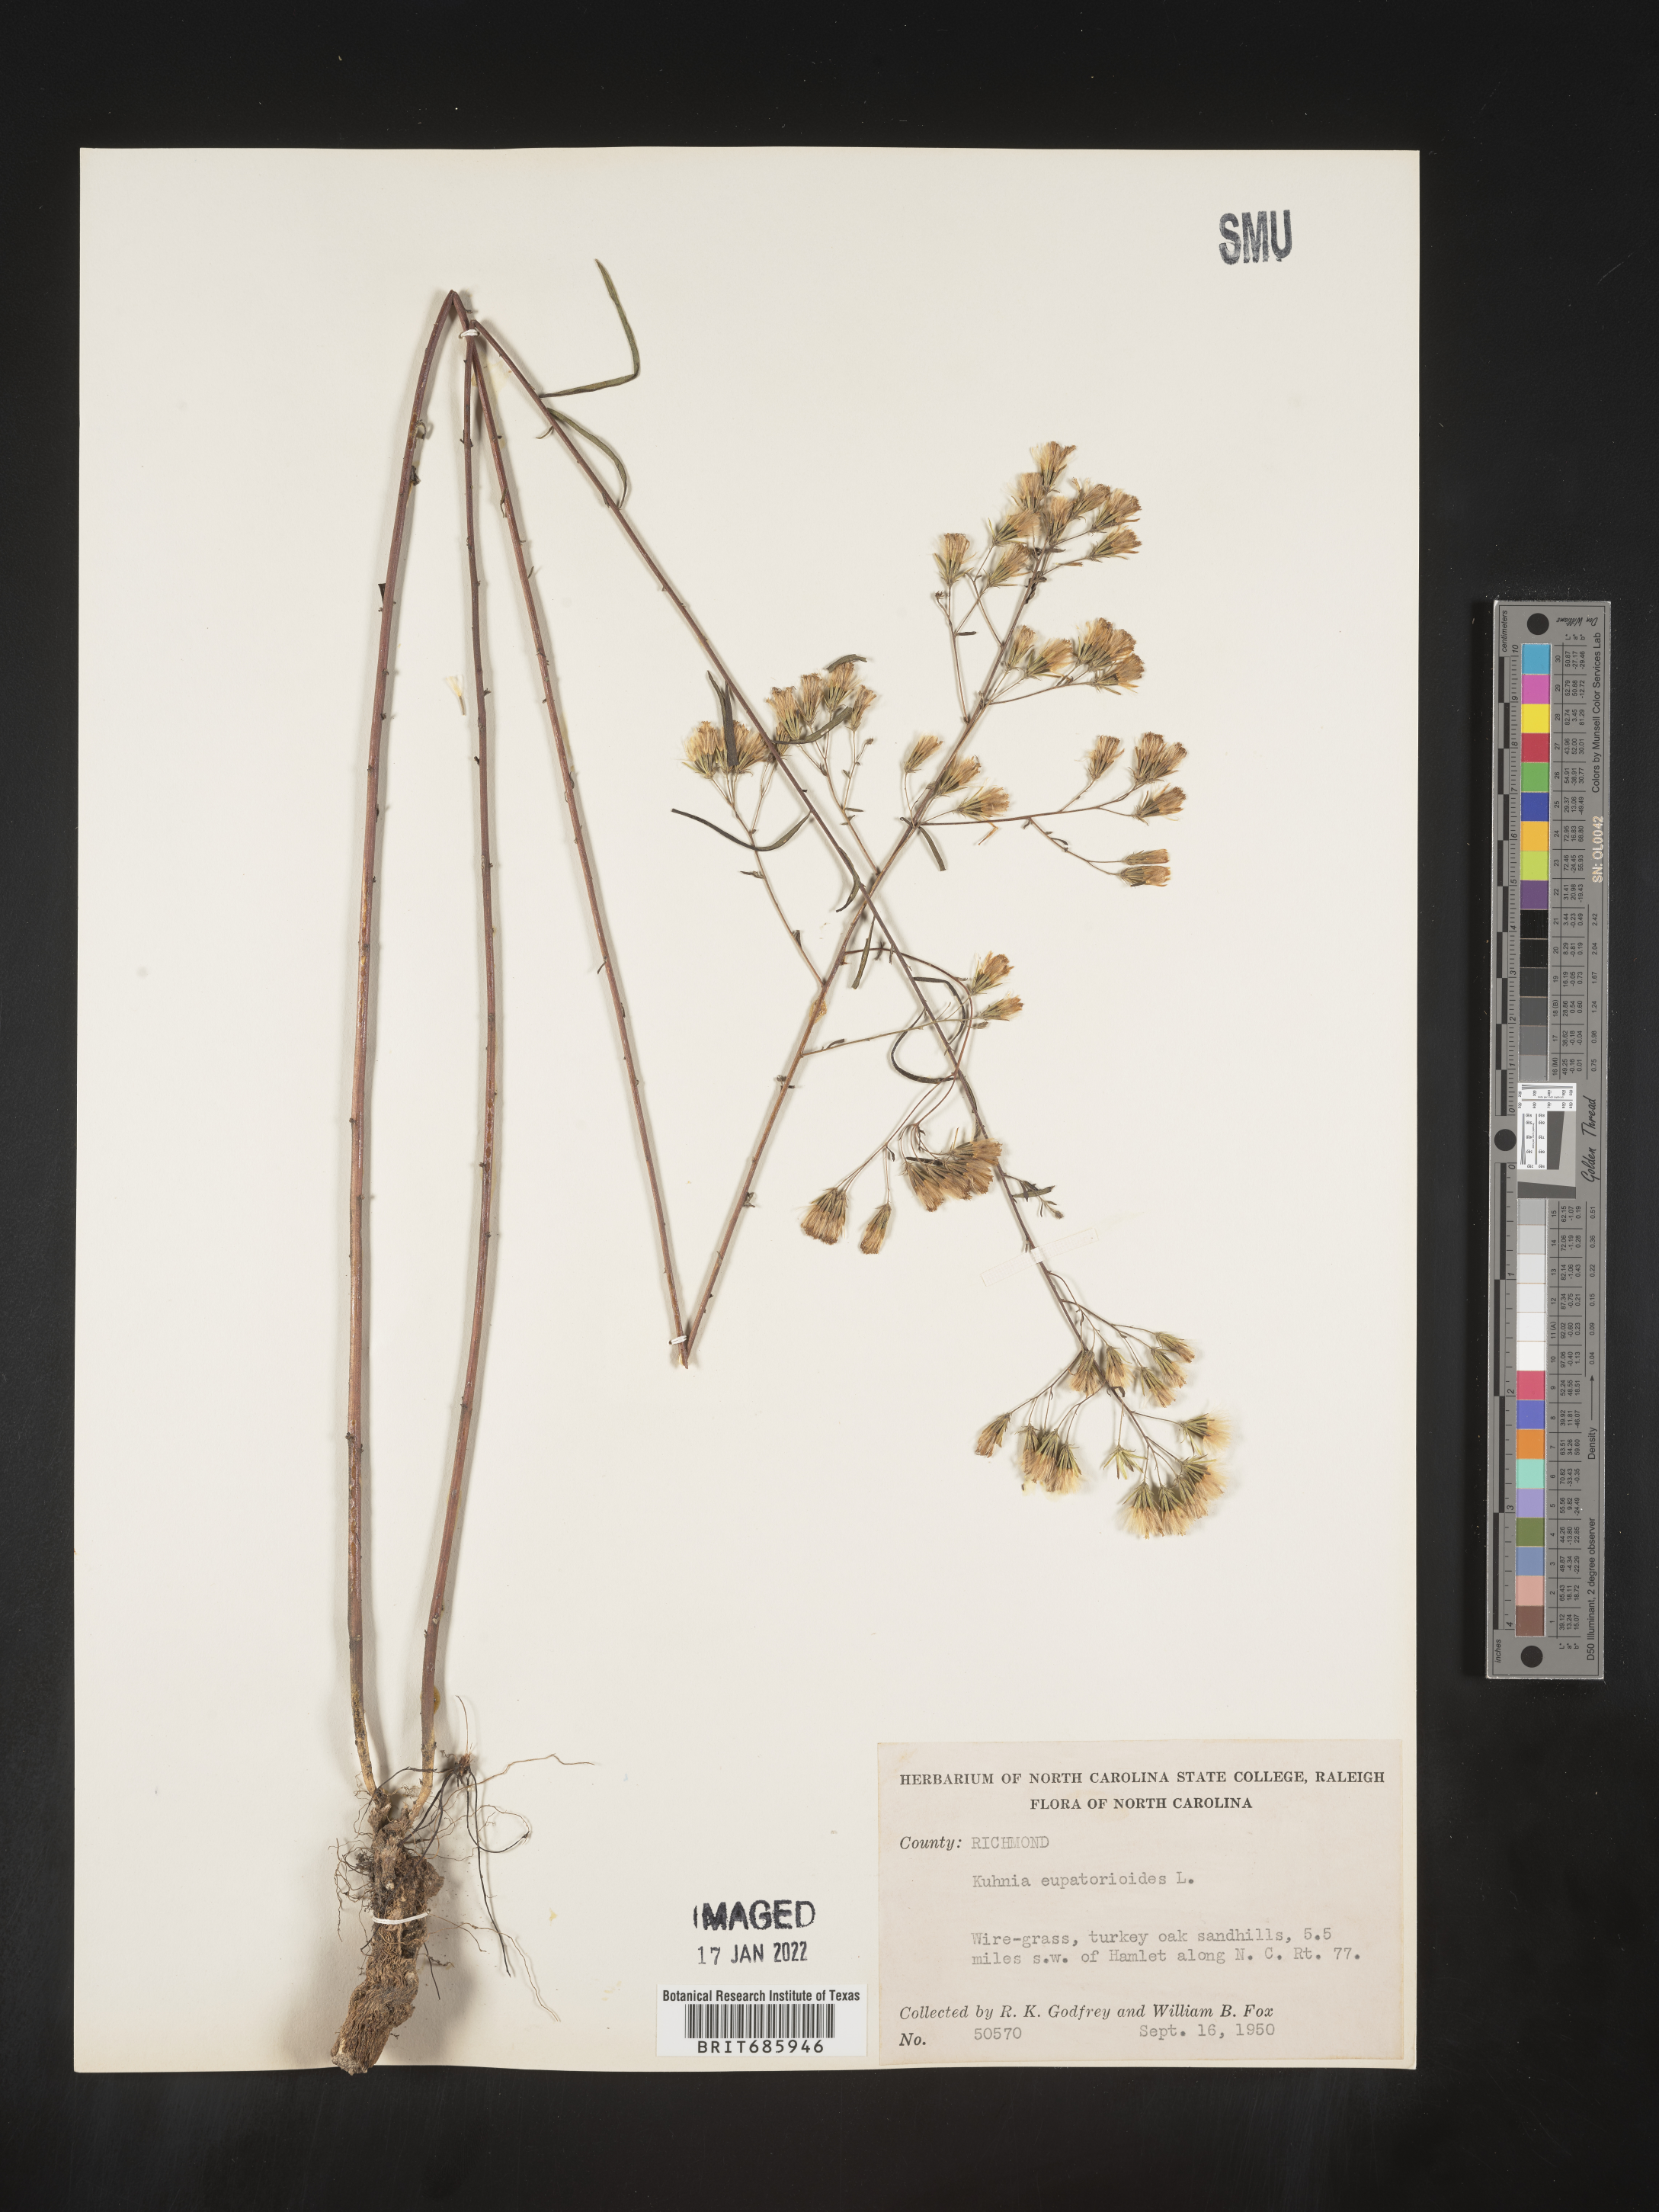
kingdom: Plantae
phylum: Tracheophyta
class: Magnoliopsida
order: Asterales
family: Asteraceae
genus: Brickellia
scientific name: Brickellia eupatorioides
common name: False boneset
